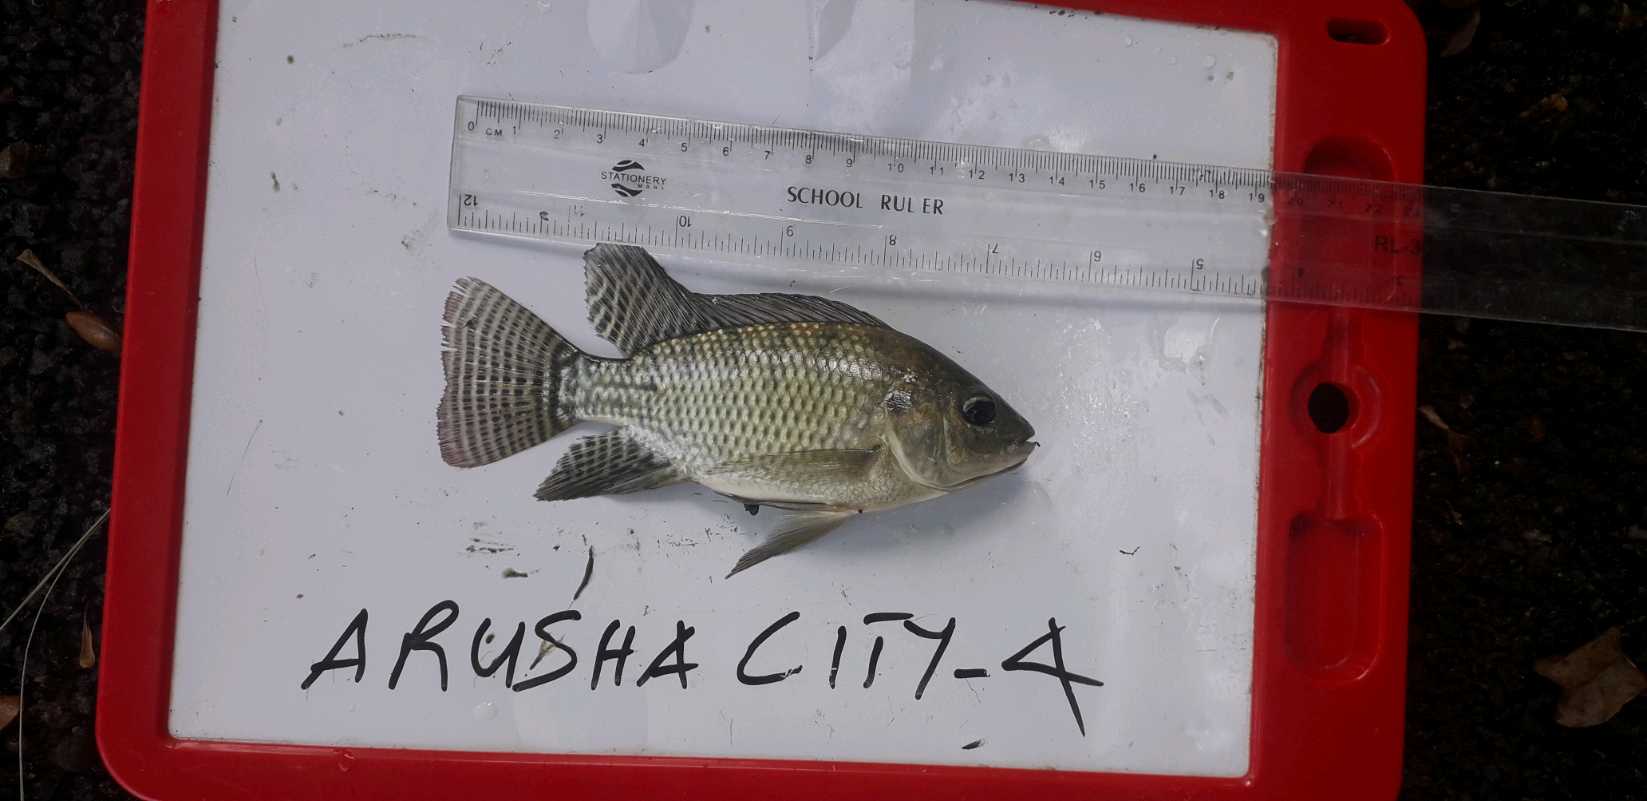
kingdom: Animalia
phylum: Chordata
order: Perciformes
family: Cichlidae
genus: Oreochromis
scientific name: Oreochromis niloticus
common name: Nile tilapia
